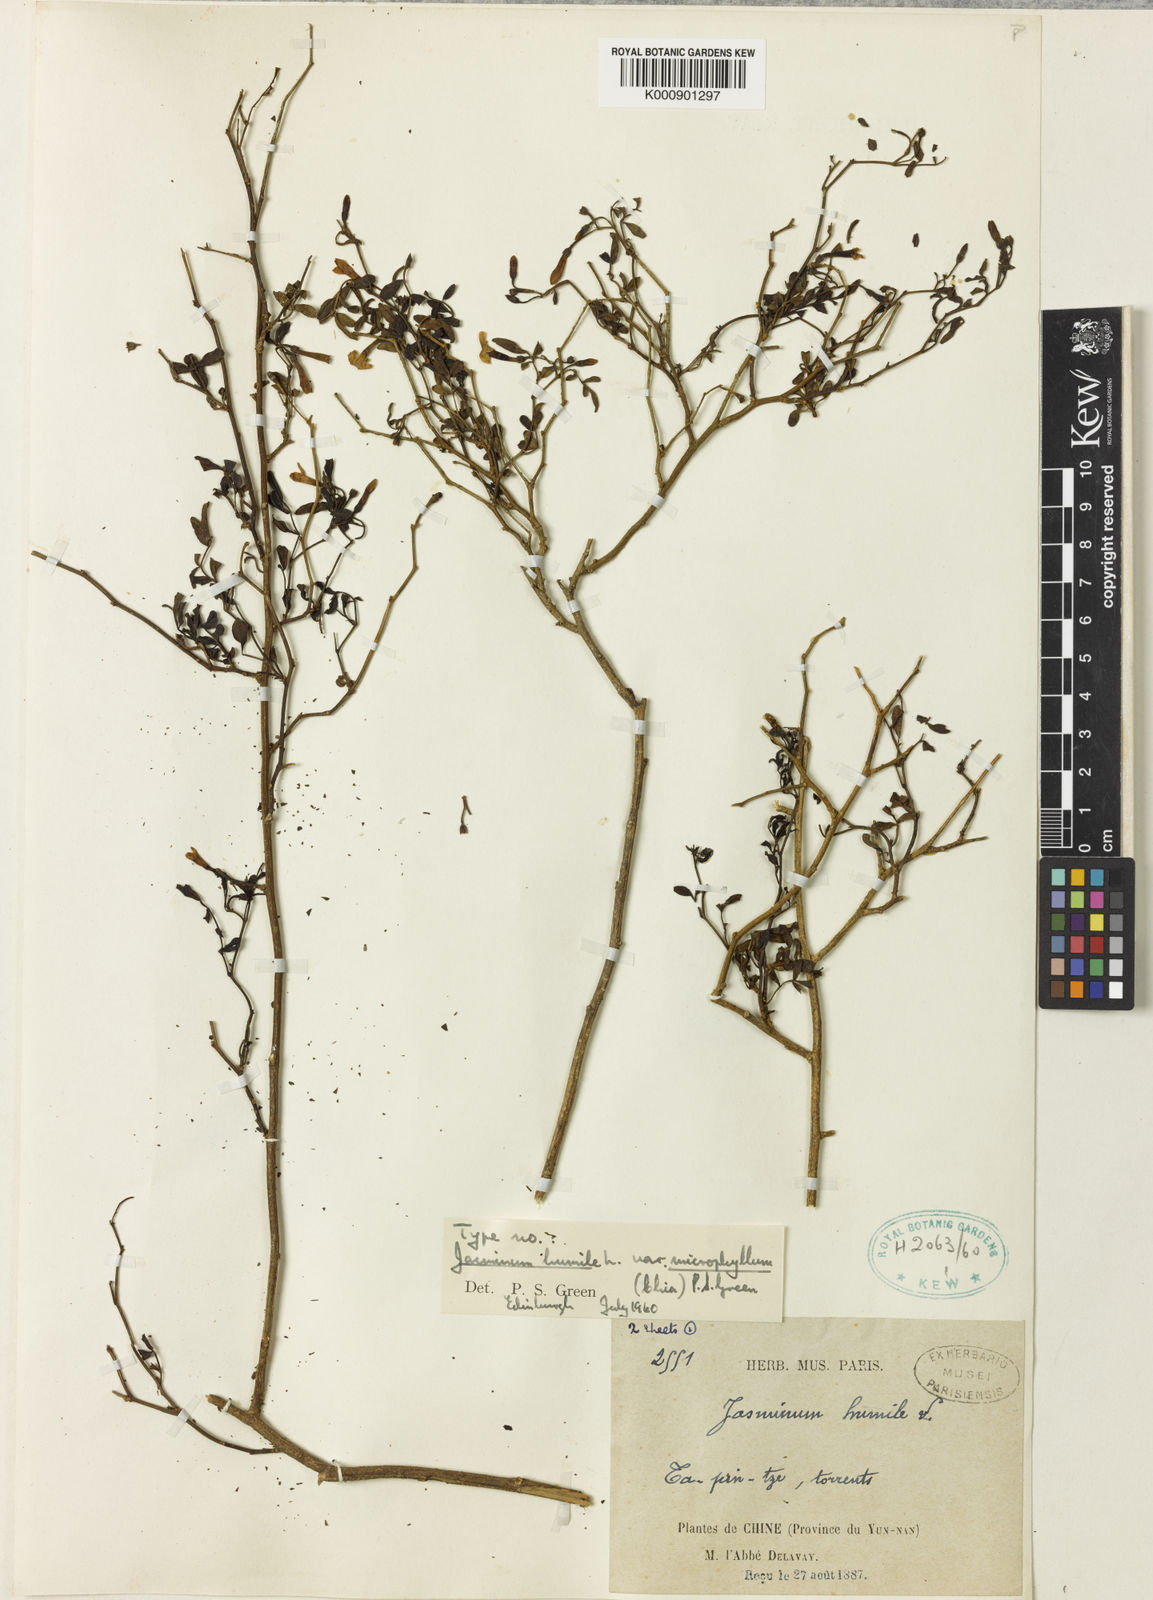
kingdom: Plantae
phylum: Tracheophyta
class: Magnoliopsida
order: Lamiales
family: Oleaceae
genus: Chrysojasminum
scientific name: Chrysojasminum humile
